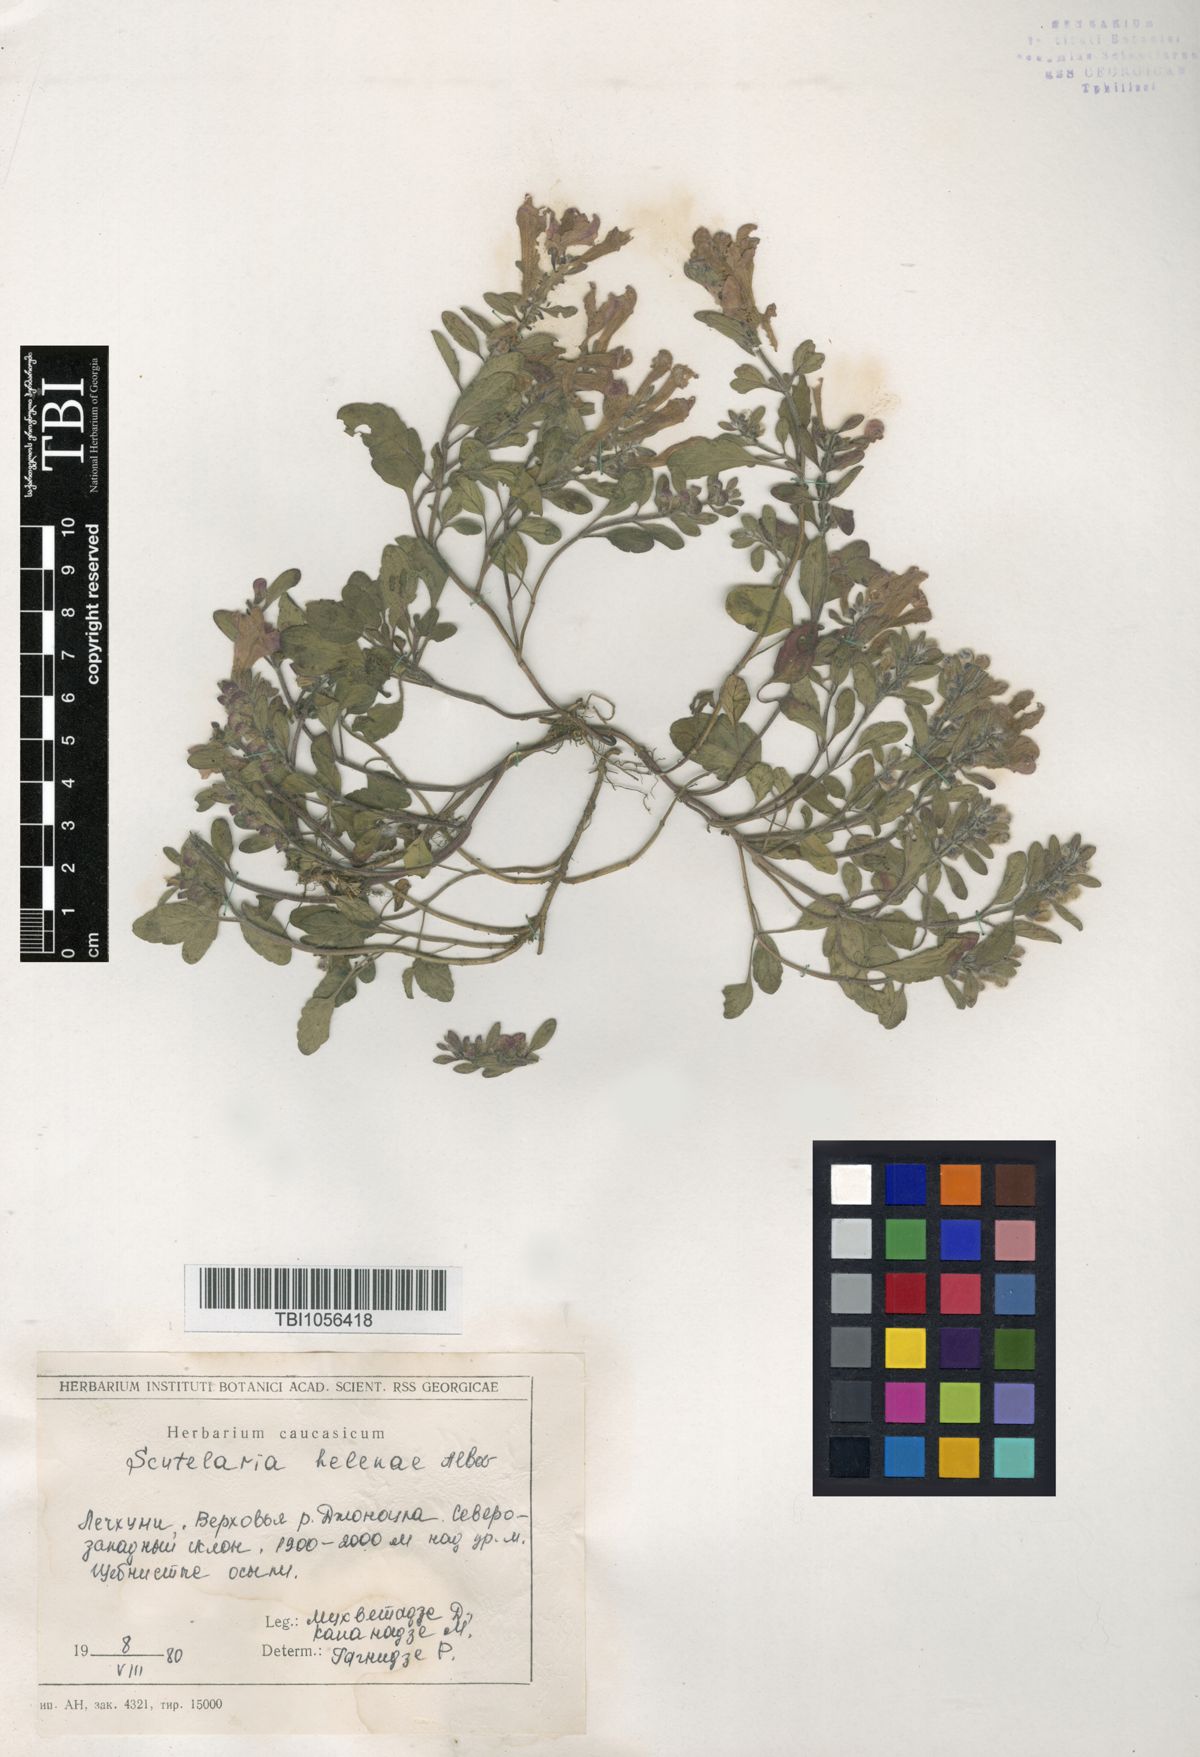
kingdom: Plantae
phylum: Tracheophyta
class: Magnoliopsida
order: Lamiales
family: Lamiaceae
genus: Scutellaria
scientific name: Scutellaria helenae
